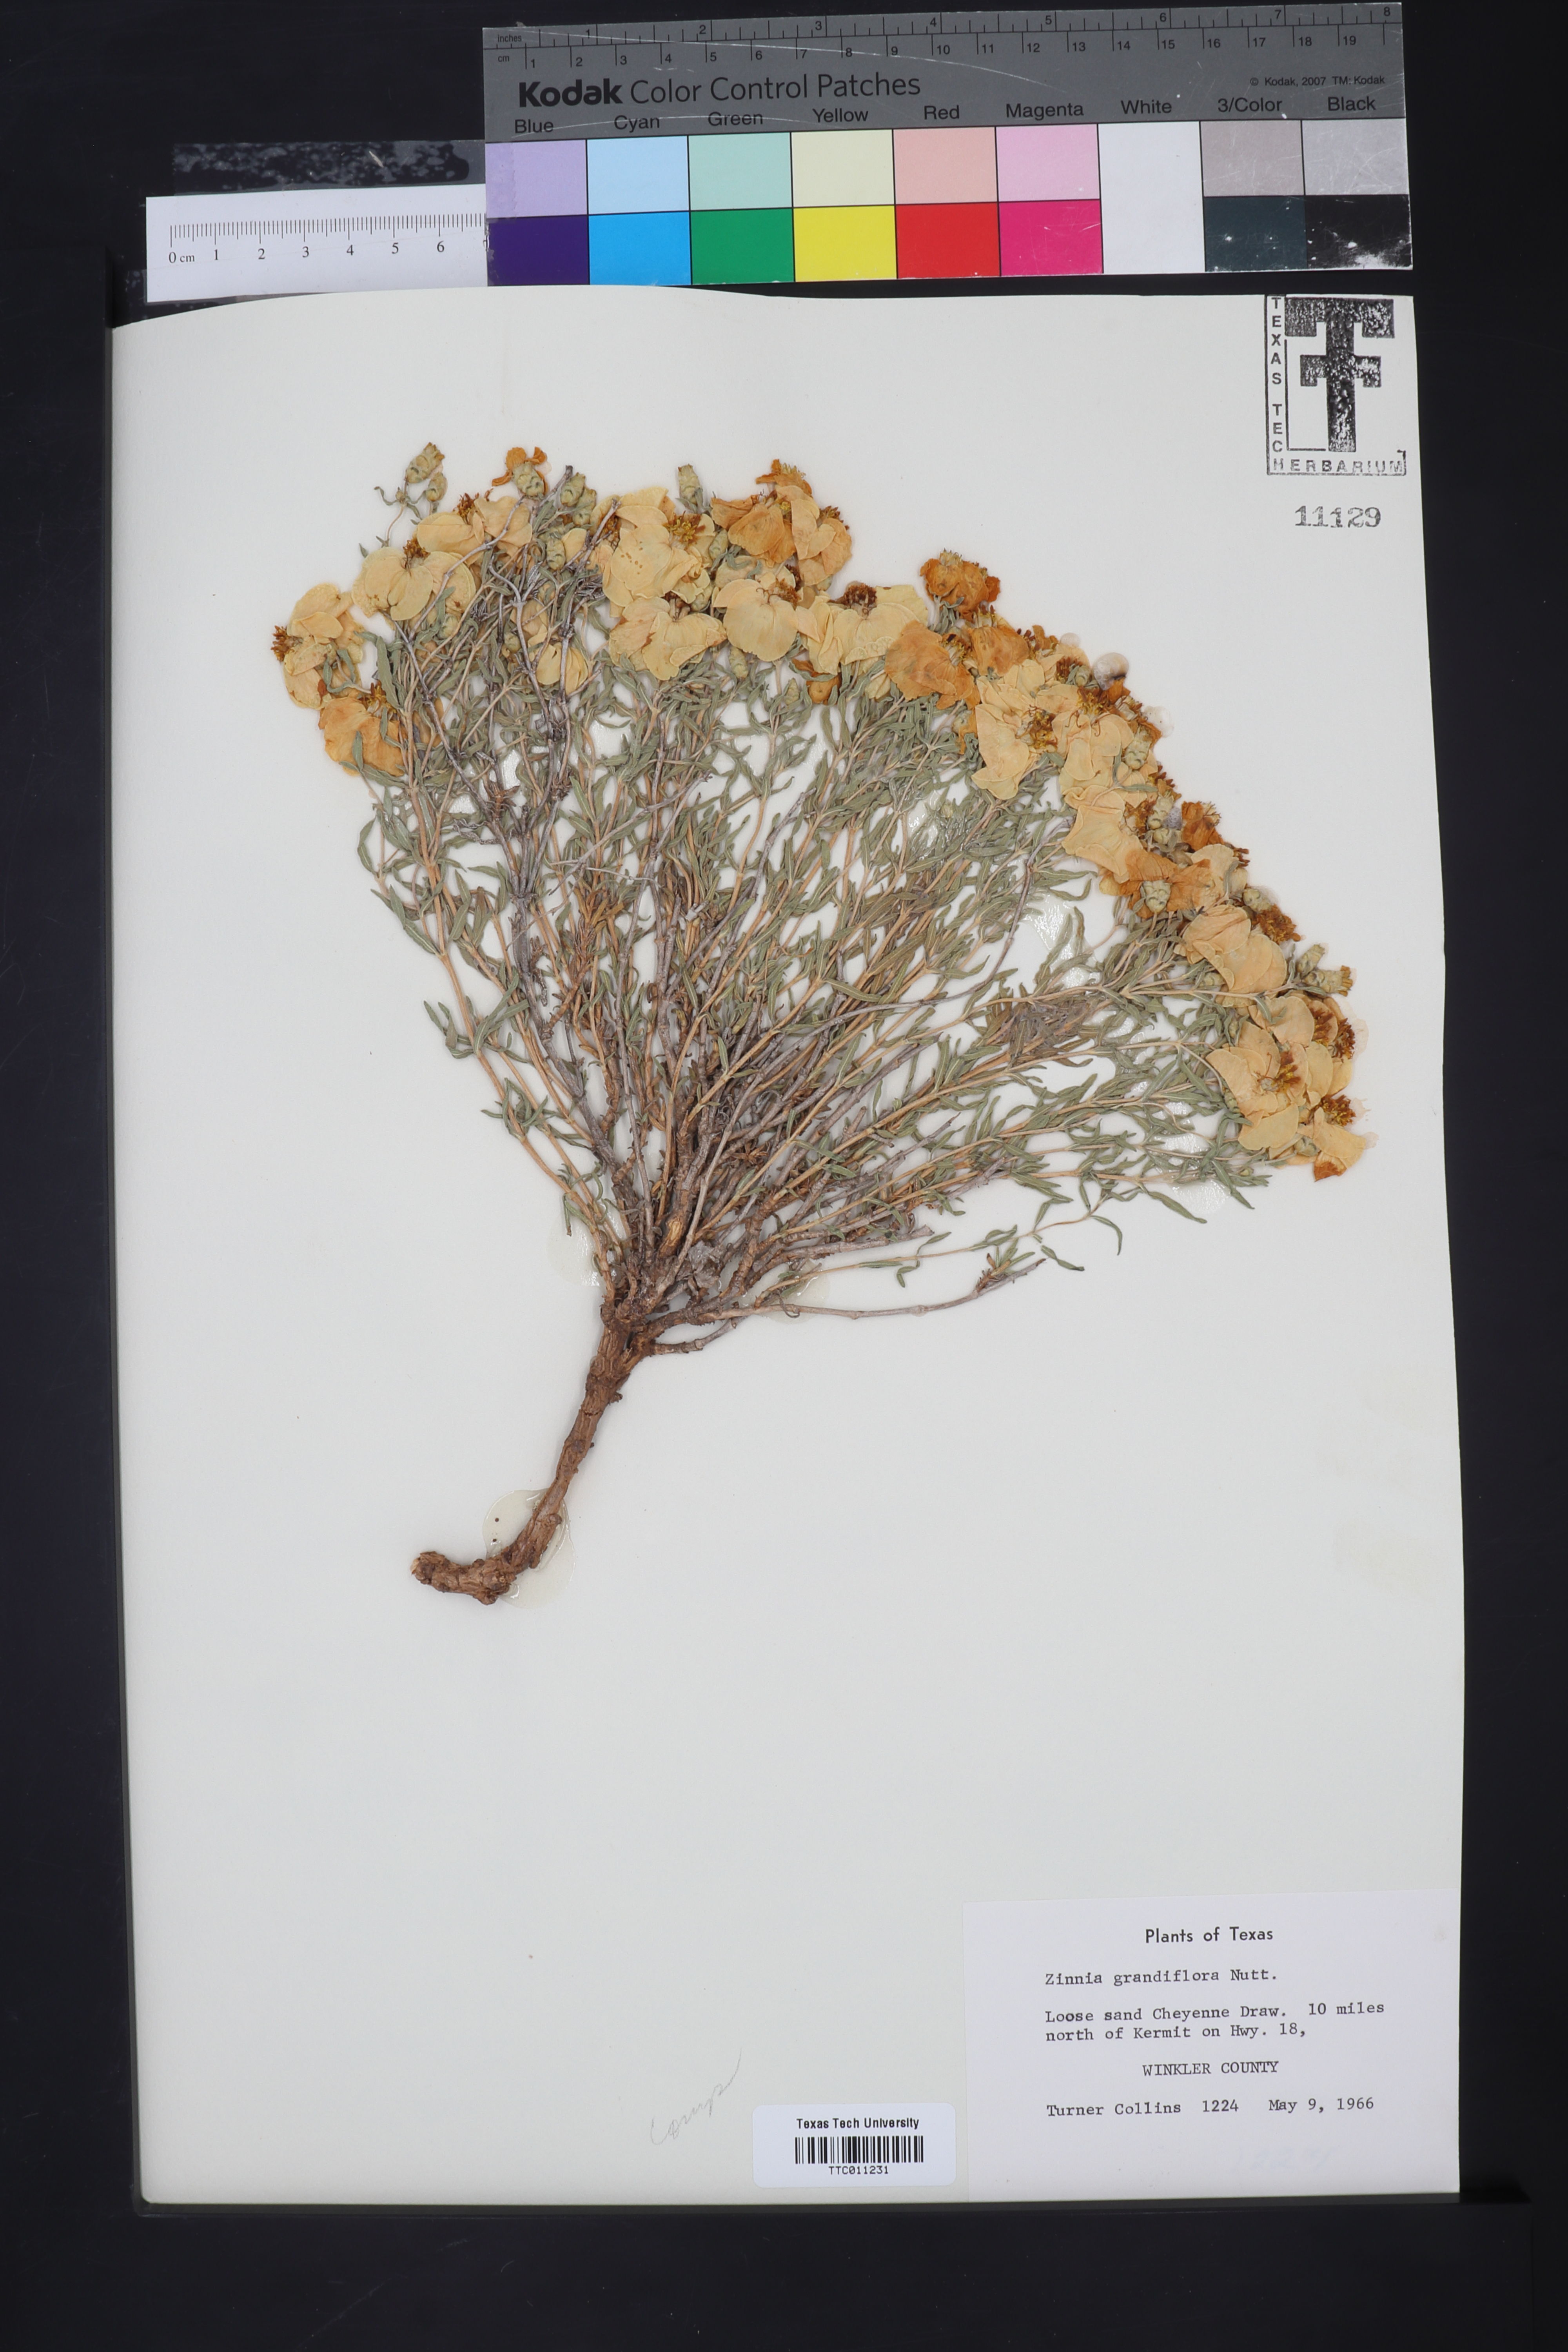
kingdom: Plantae
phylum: Tracheophyta
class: Magnoliopsida
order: Asterales
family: Asteraceae
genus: Zinnia
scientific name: Zinnia grandiflora
